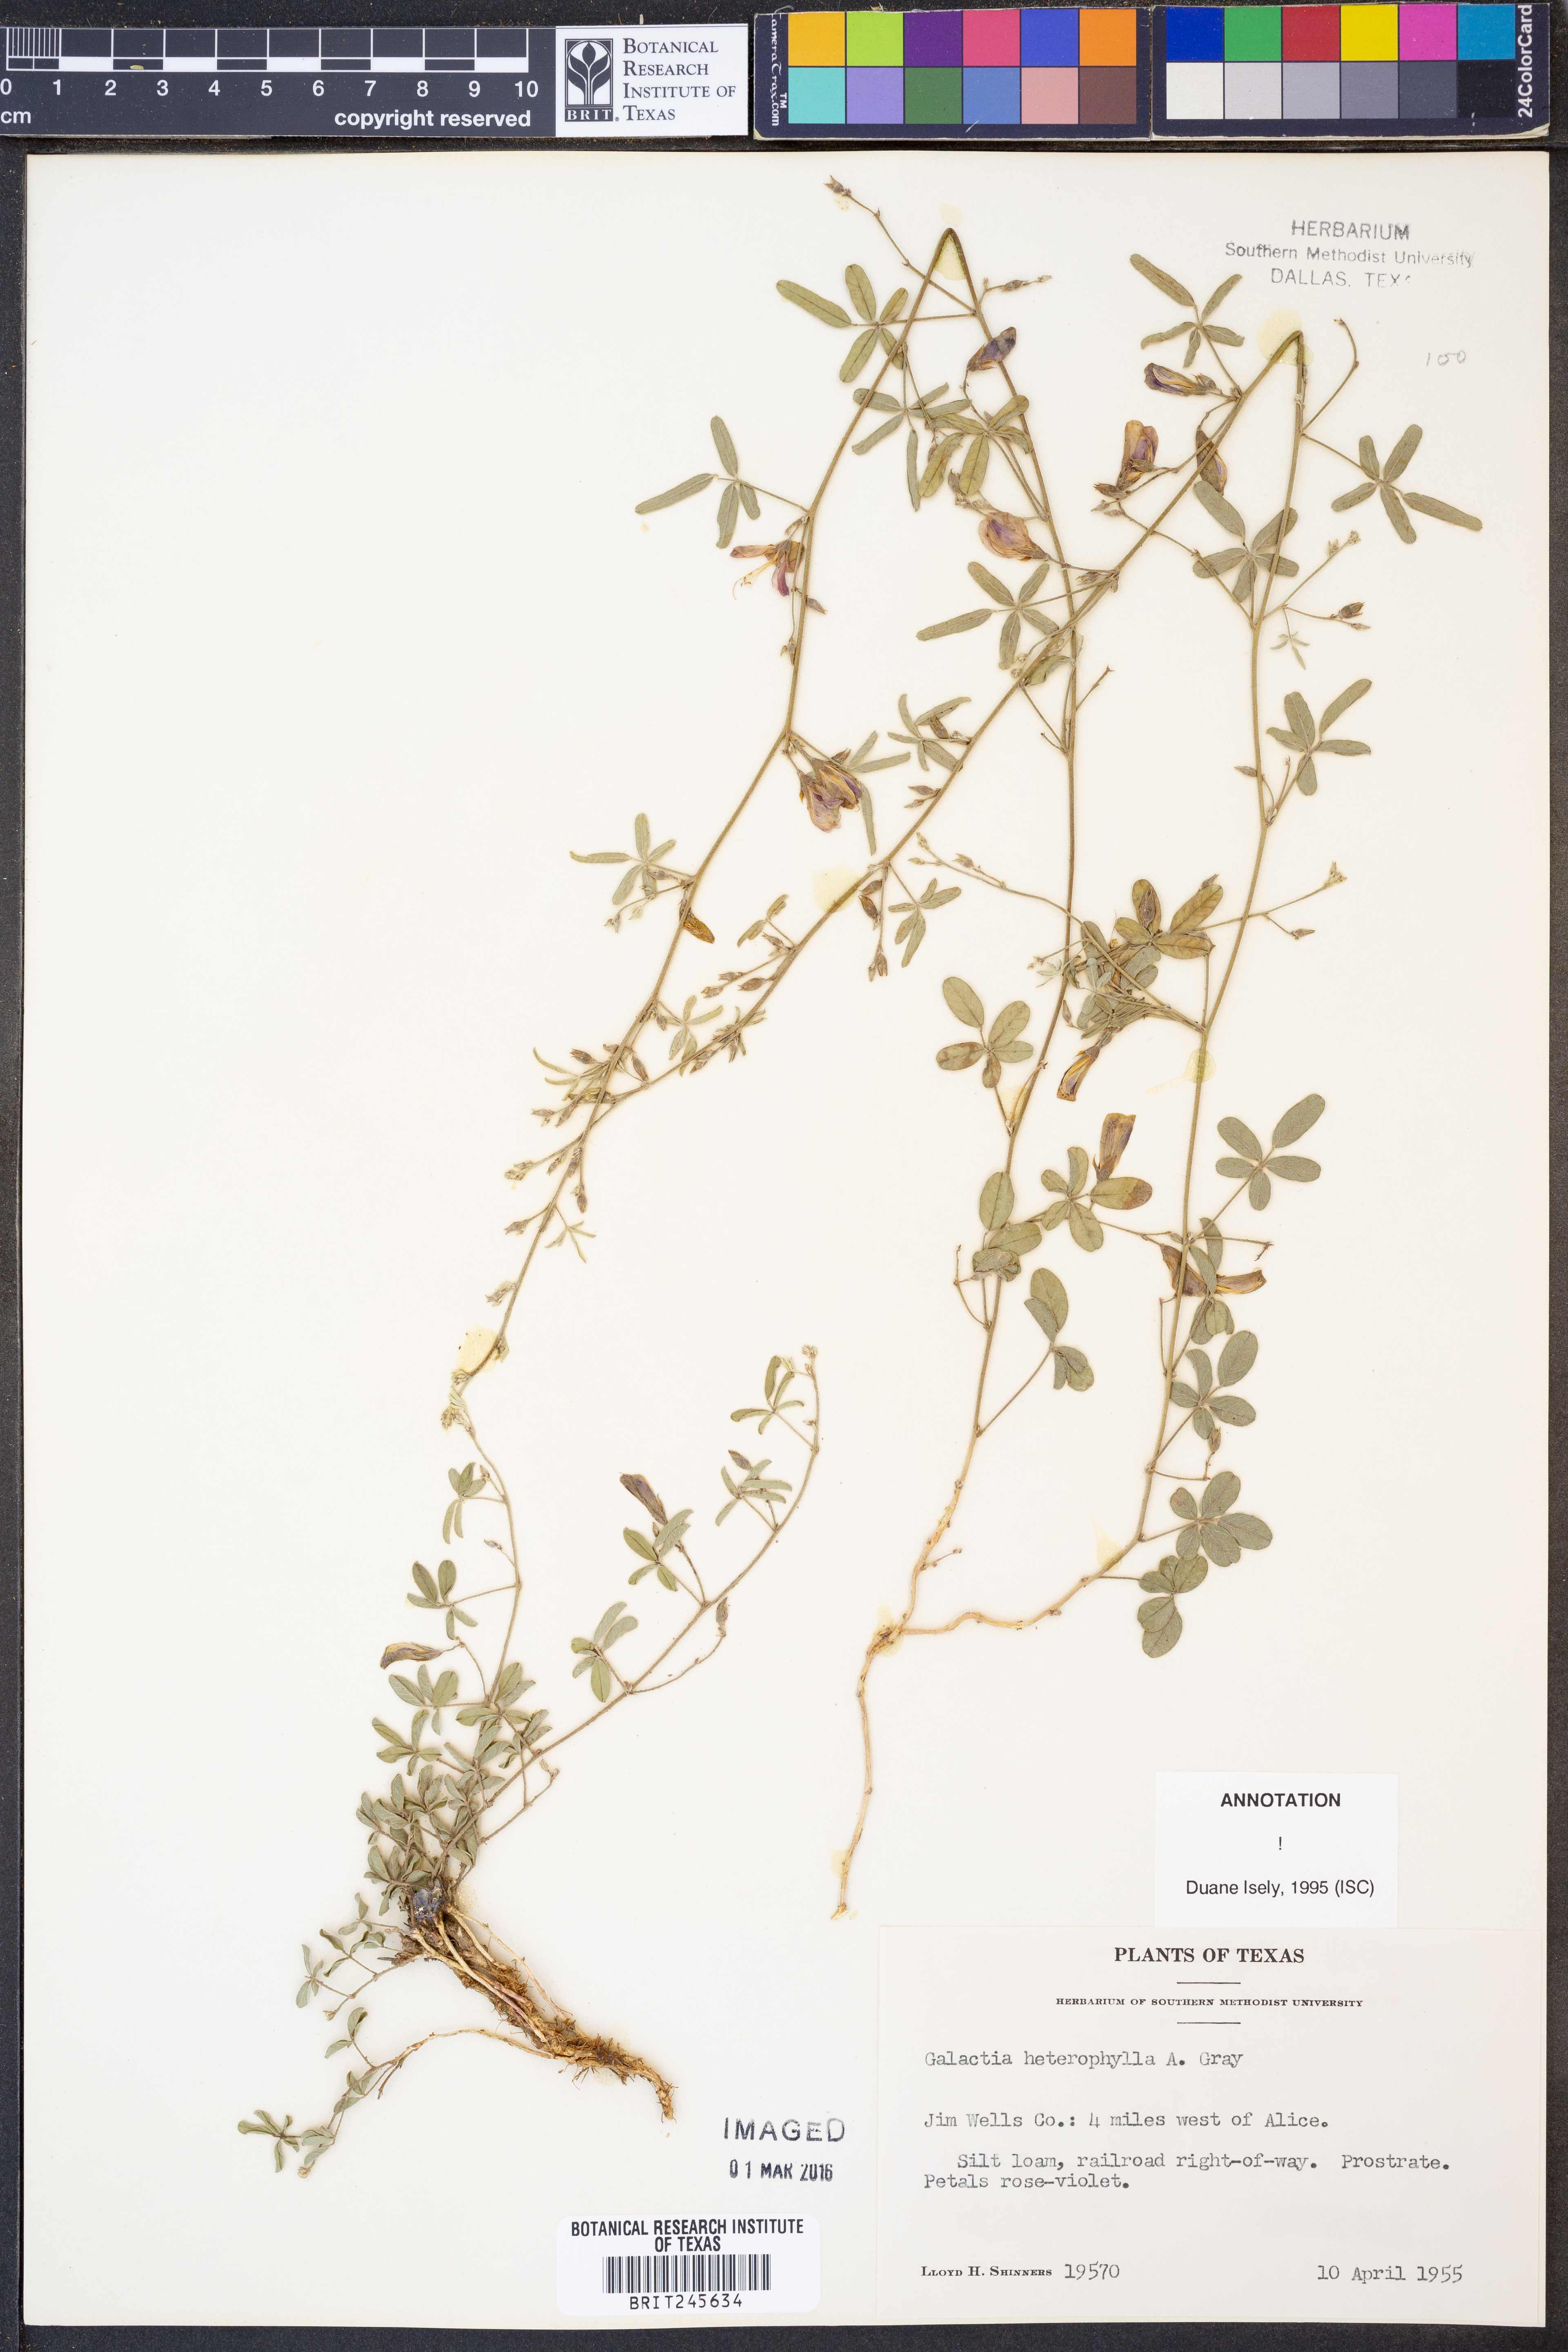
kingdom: Plantae
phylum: Tracheophyta
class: Magnoliopsida
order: Fabales
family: Fabaceae
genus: Galactia
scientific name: Galactia heterophylla
